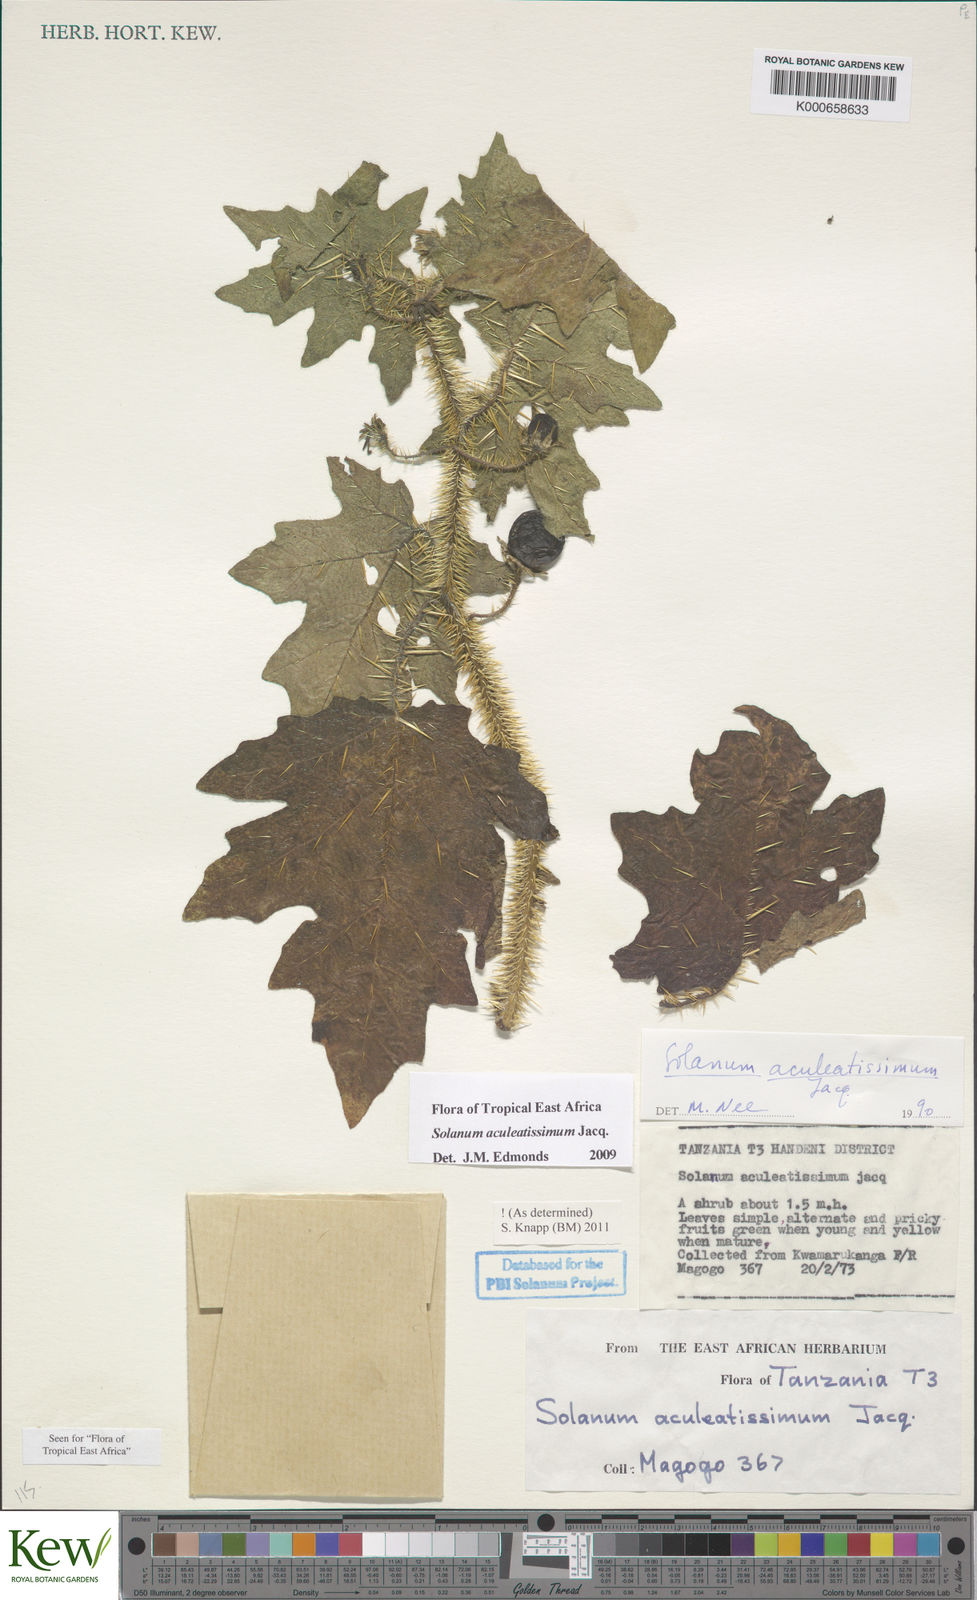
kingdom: Plantae
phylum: Tracheophyta
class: Magnoliopsida
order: Solanales
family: Solanaceae
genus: Solanum
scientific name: Solanum aculeatissimum
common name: Dutch eggplant
